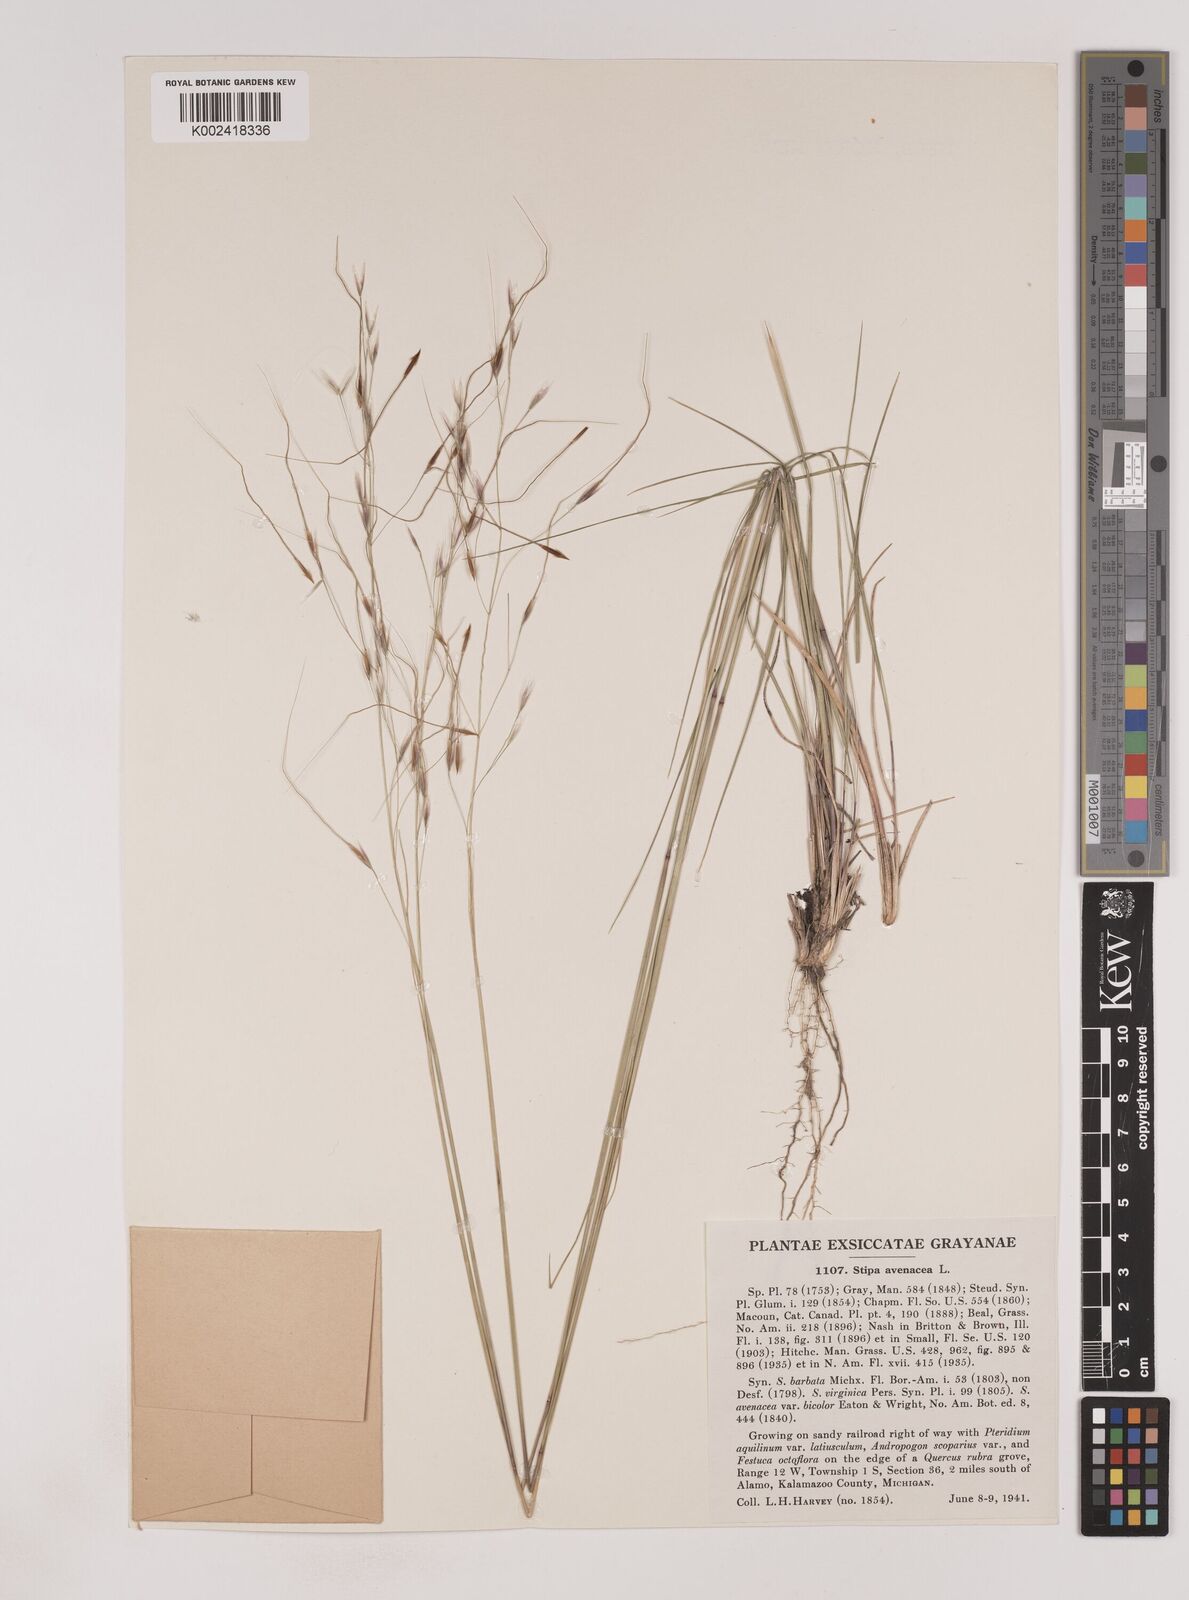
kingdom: Plantae
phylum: Tracheophyta
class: Liliopsida
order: Poales
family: Poaceae
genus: Piptochaetium
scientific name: Piptochaetium avenaceum
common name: Black bunchgrass
